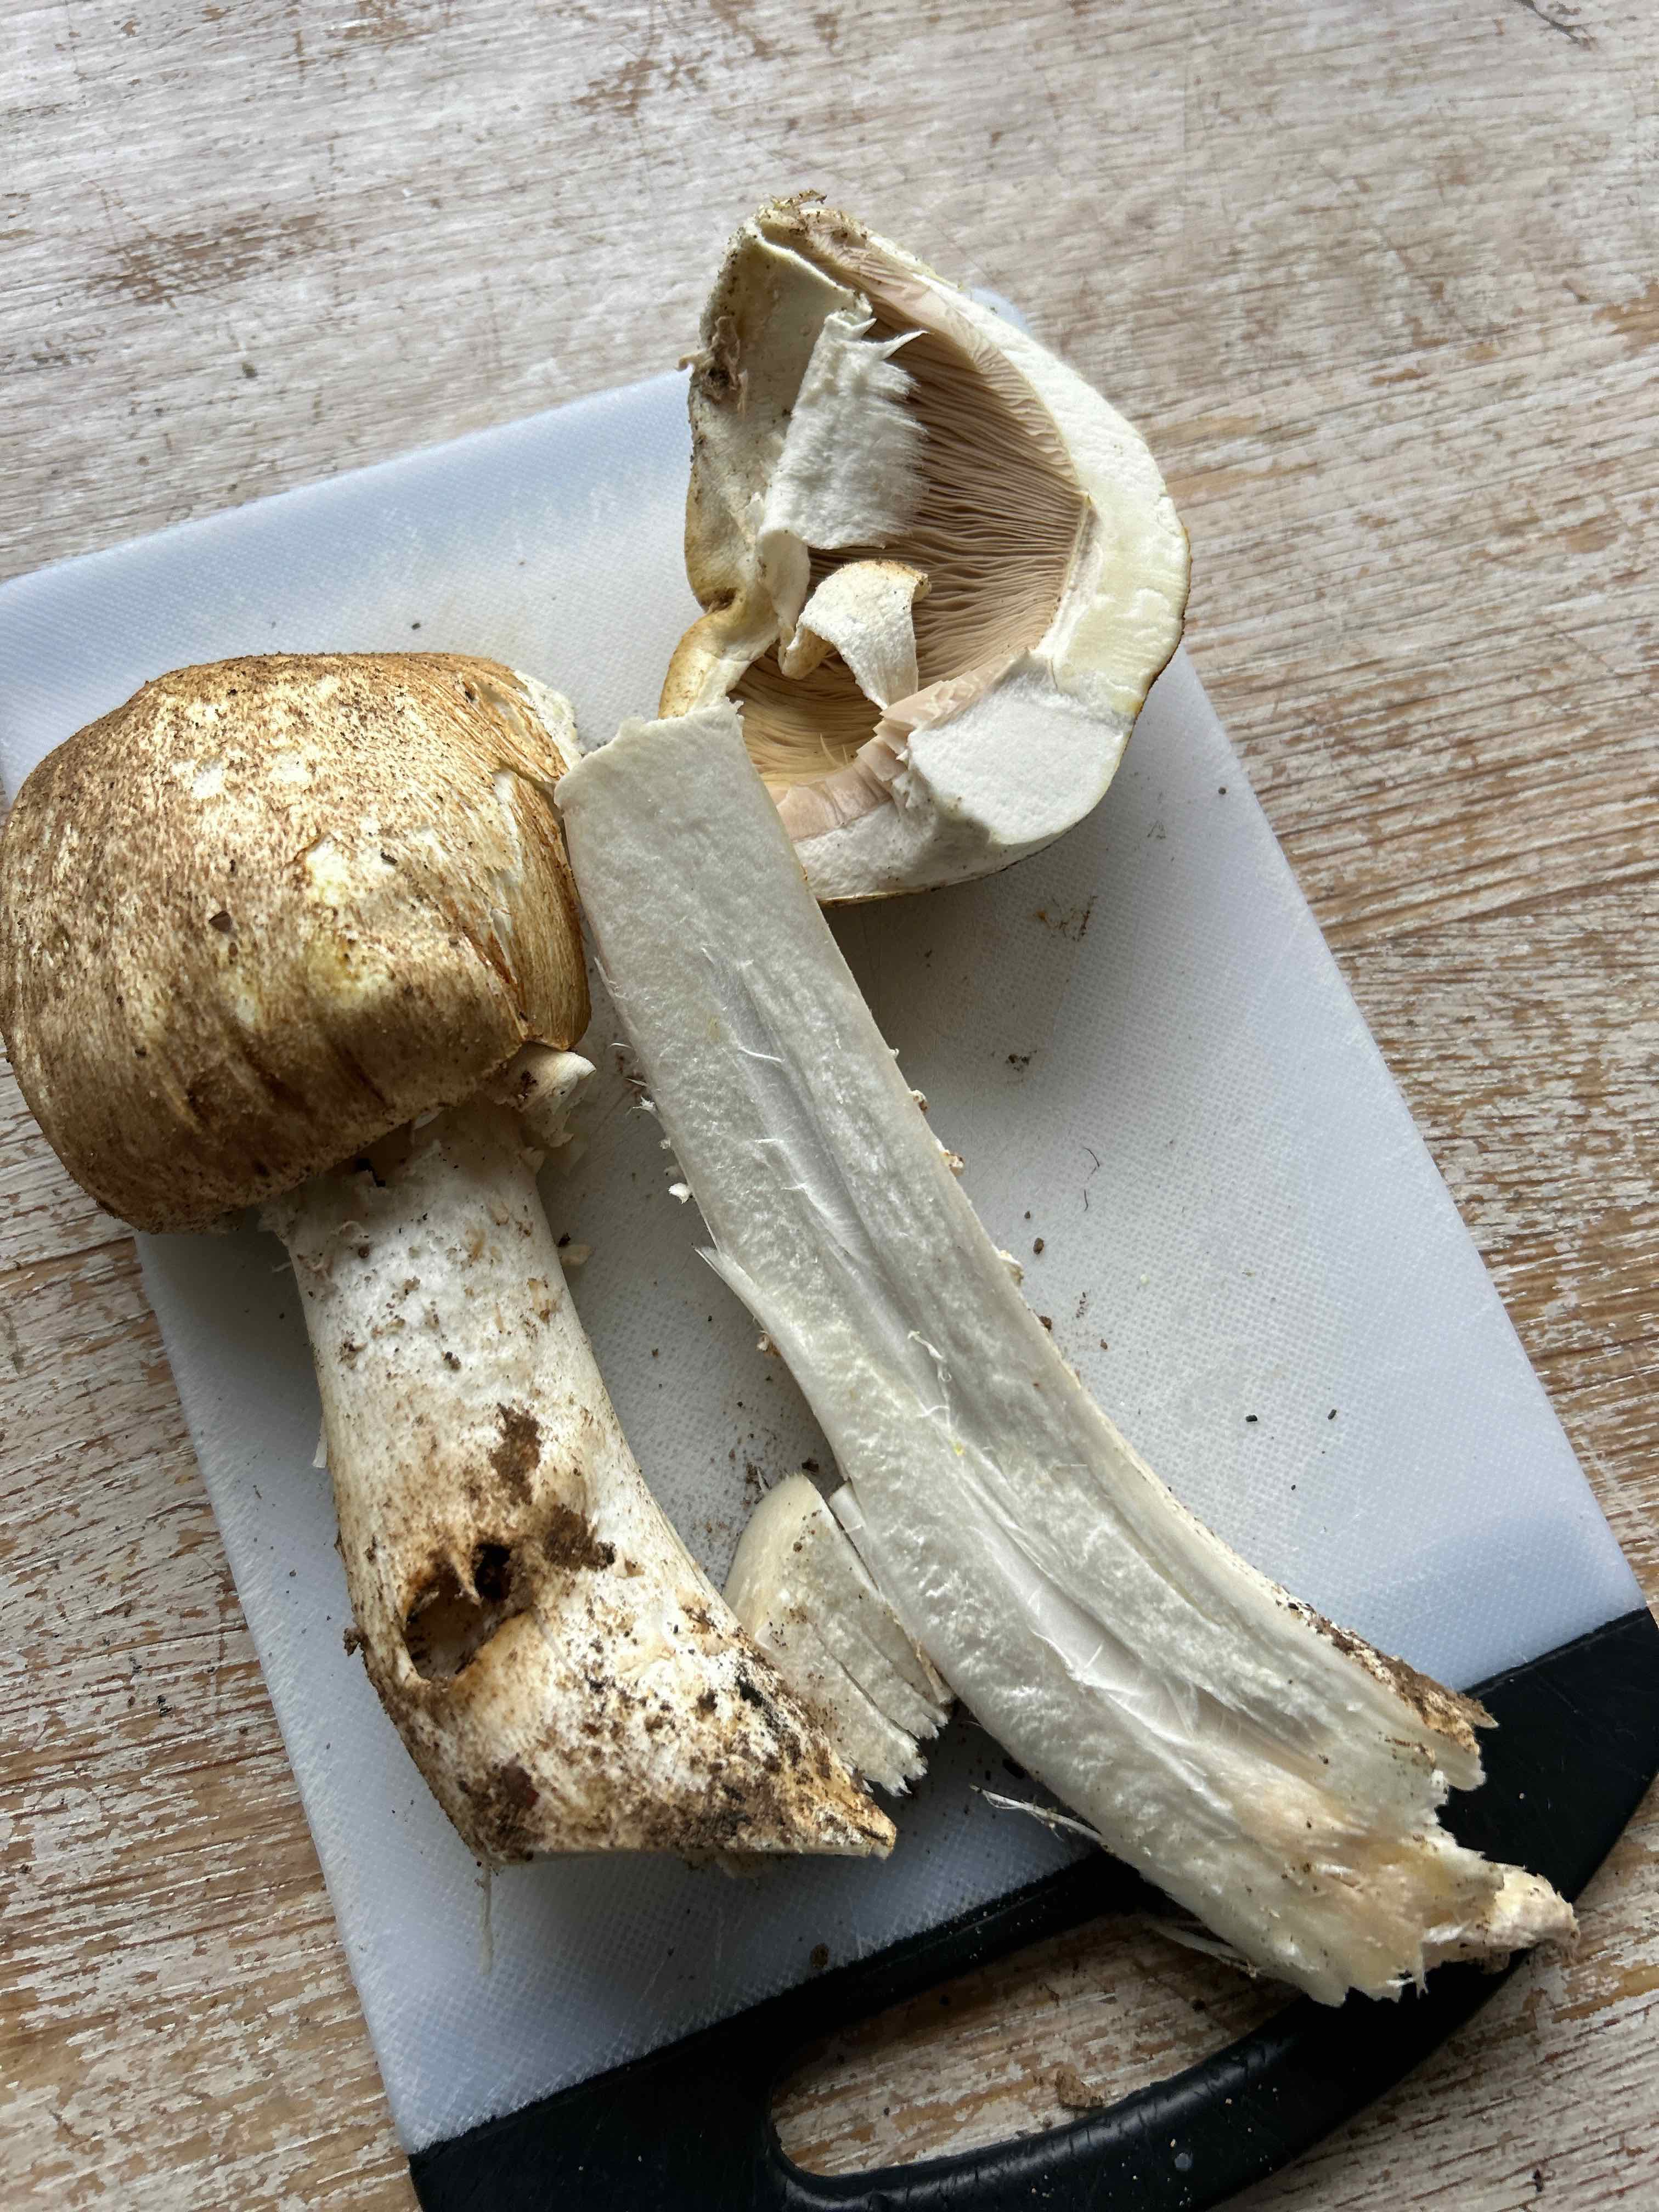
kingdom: Fungi
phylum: Basidiomycota
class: Agaricomycetes
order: Agaricales
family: Agaricaceae
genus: Agaricus
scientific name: Agaricus
